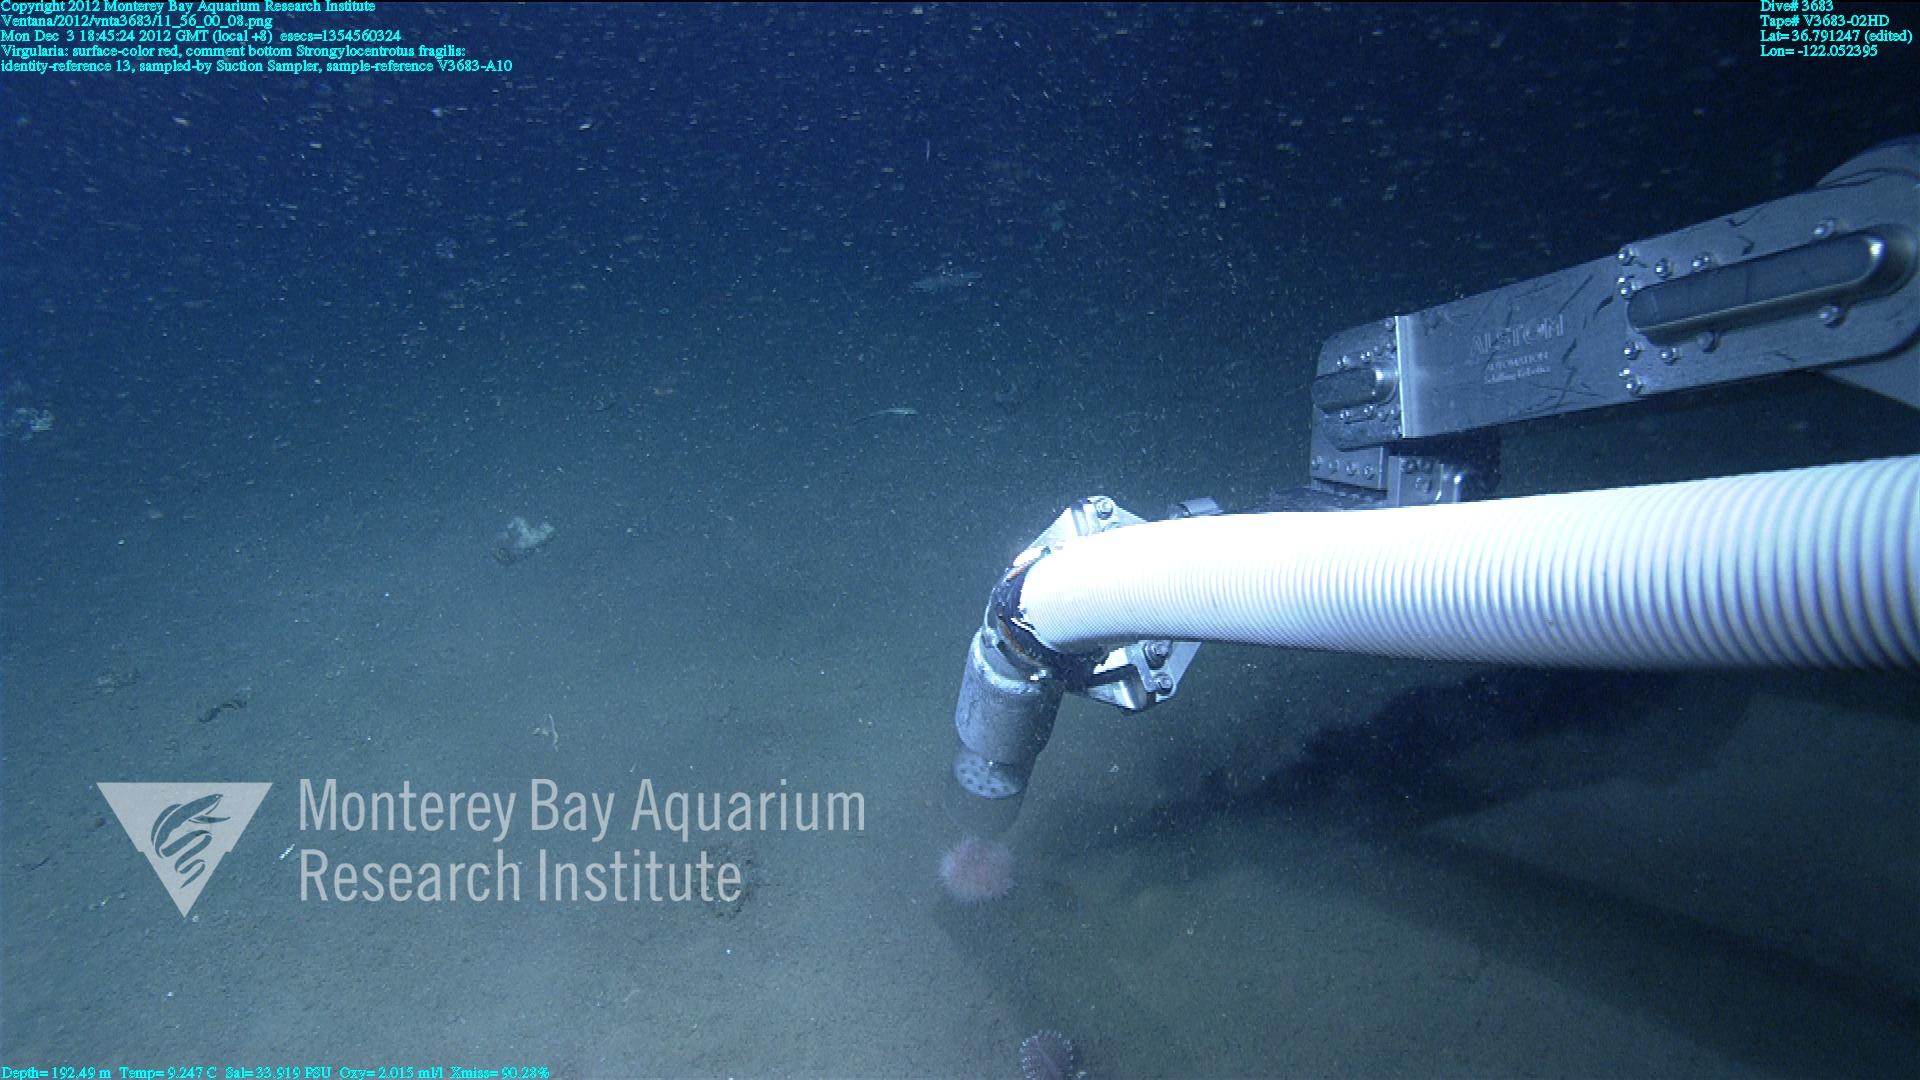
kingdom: Animalia
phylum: Cnidaria
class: Anthozoa
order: Scleralcyonacea
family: Virgulariidae
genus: Virgularia
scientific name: Virgularia
